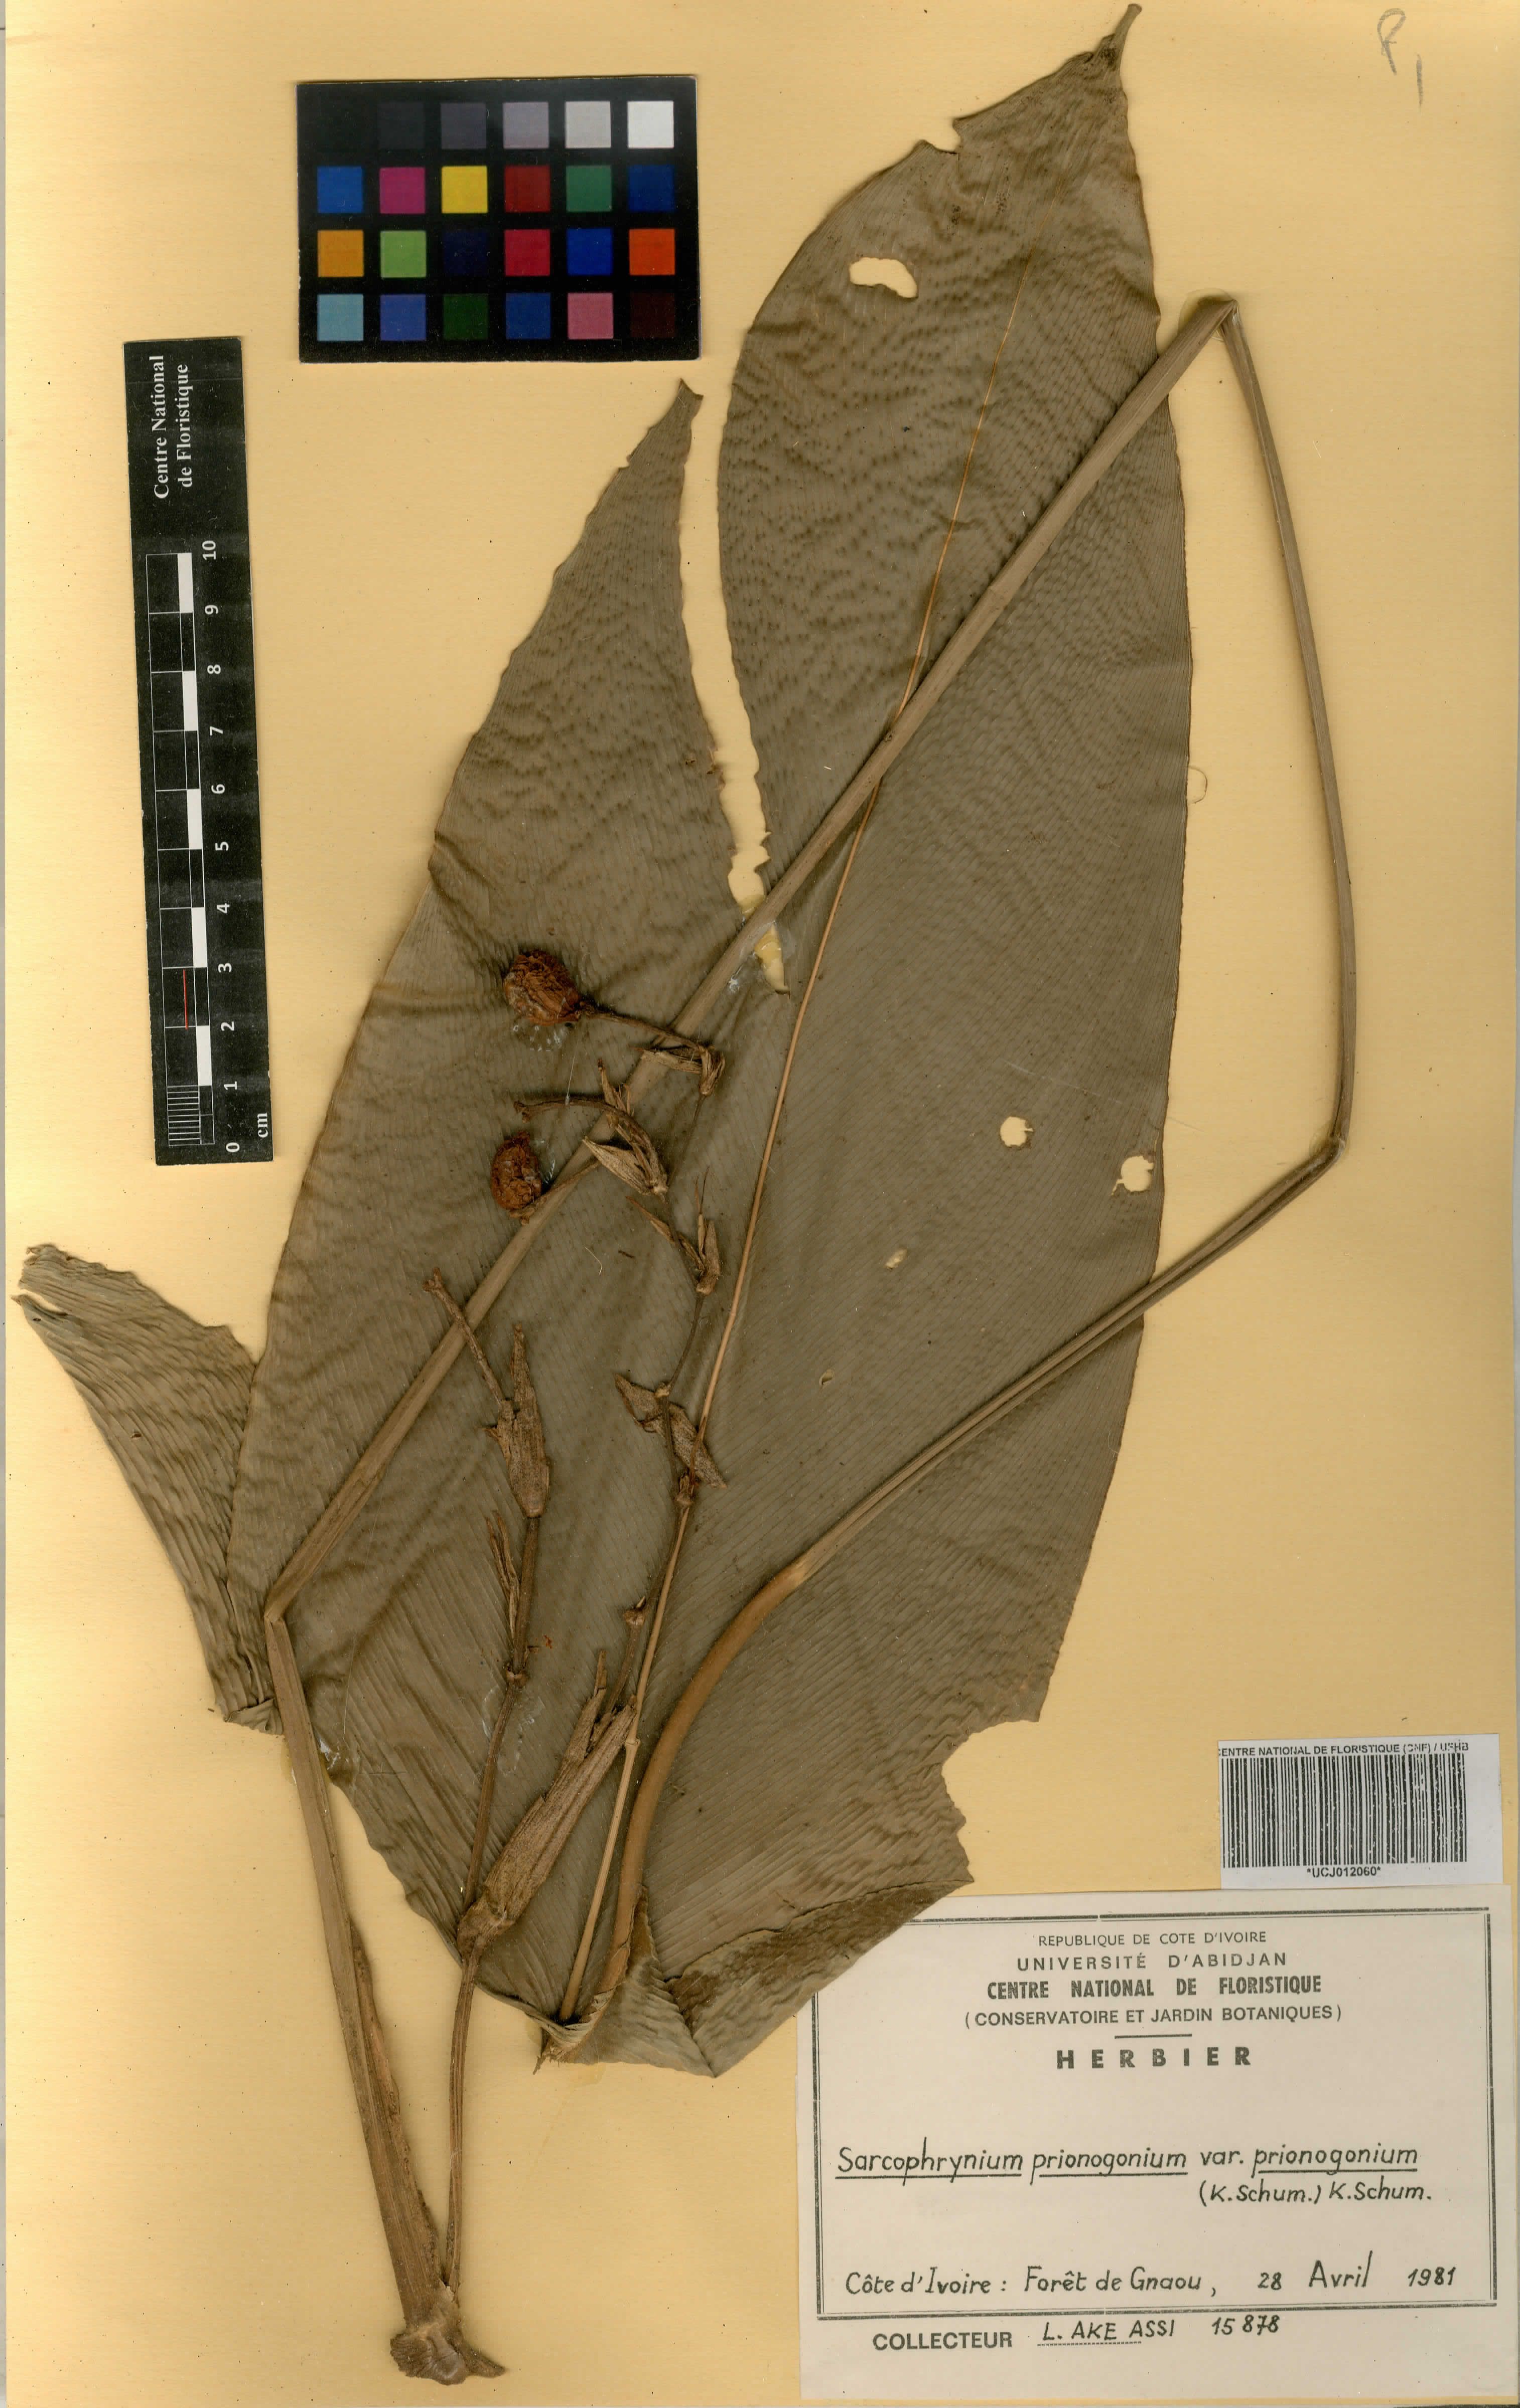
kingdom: Plantae
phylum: Tracheophyta
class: Liliopsida
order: Zingiberales
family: Marantaceae
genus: Sarcophrynium
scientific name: Sarcophrynium prionogonium
